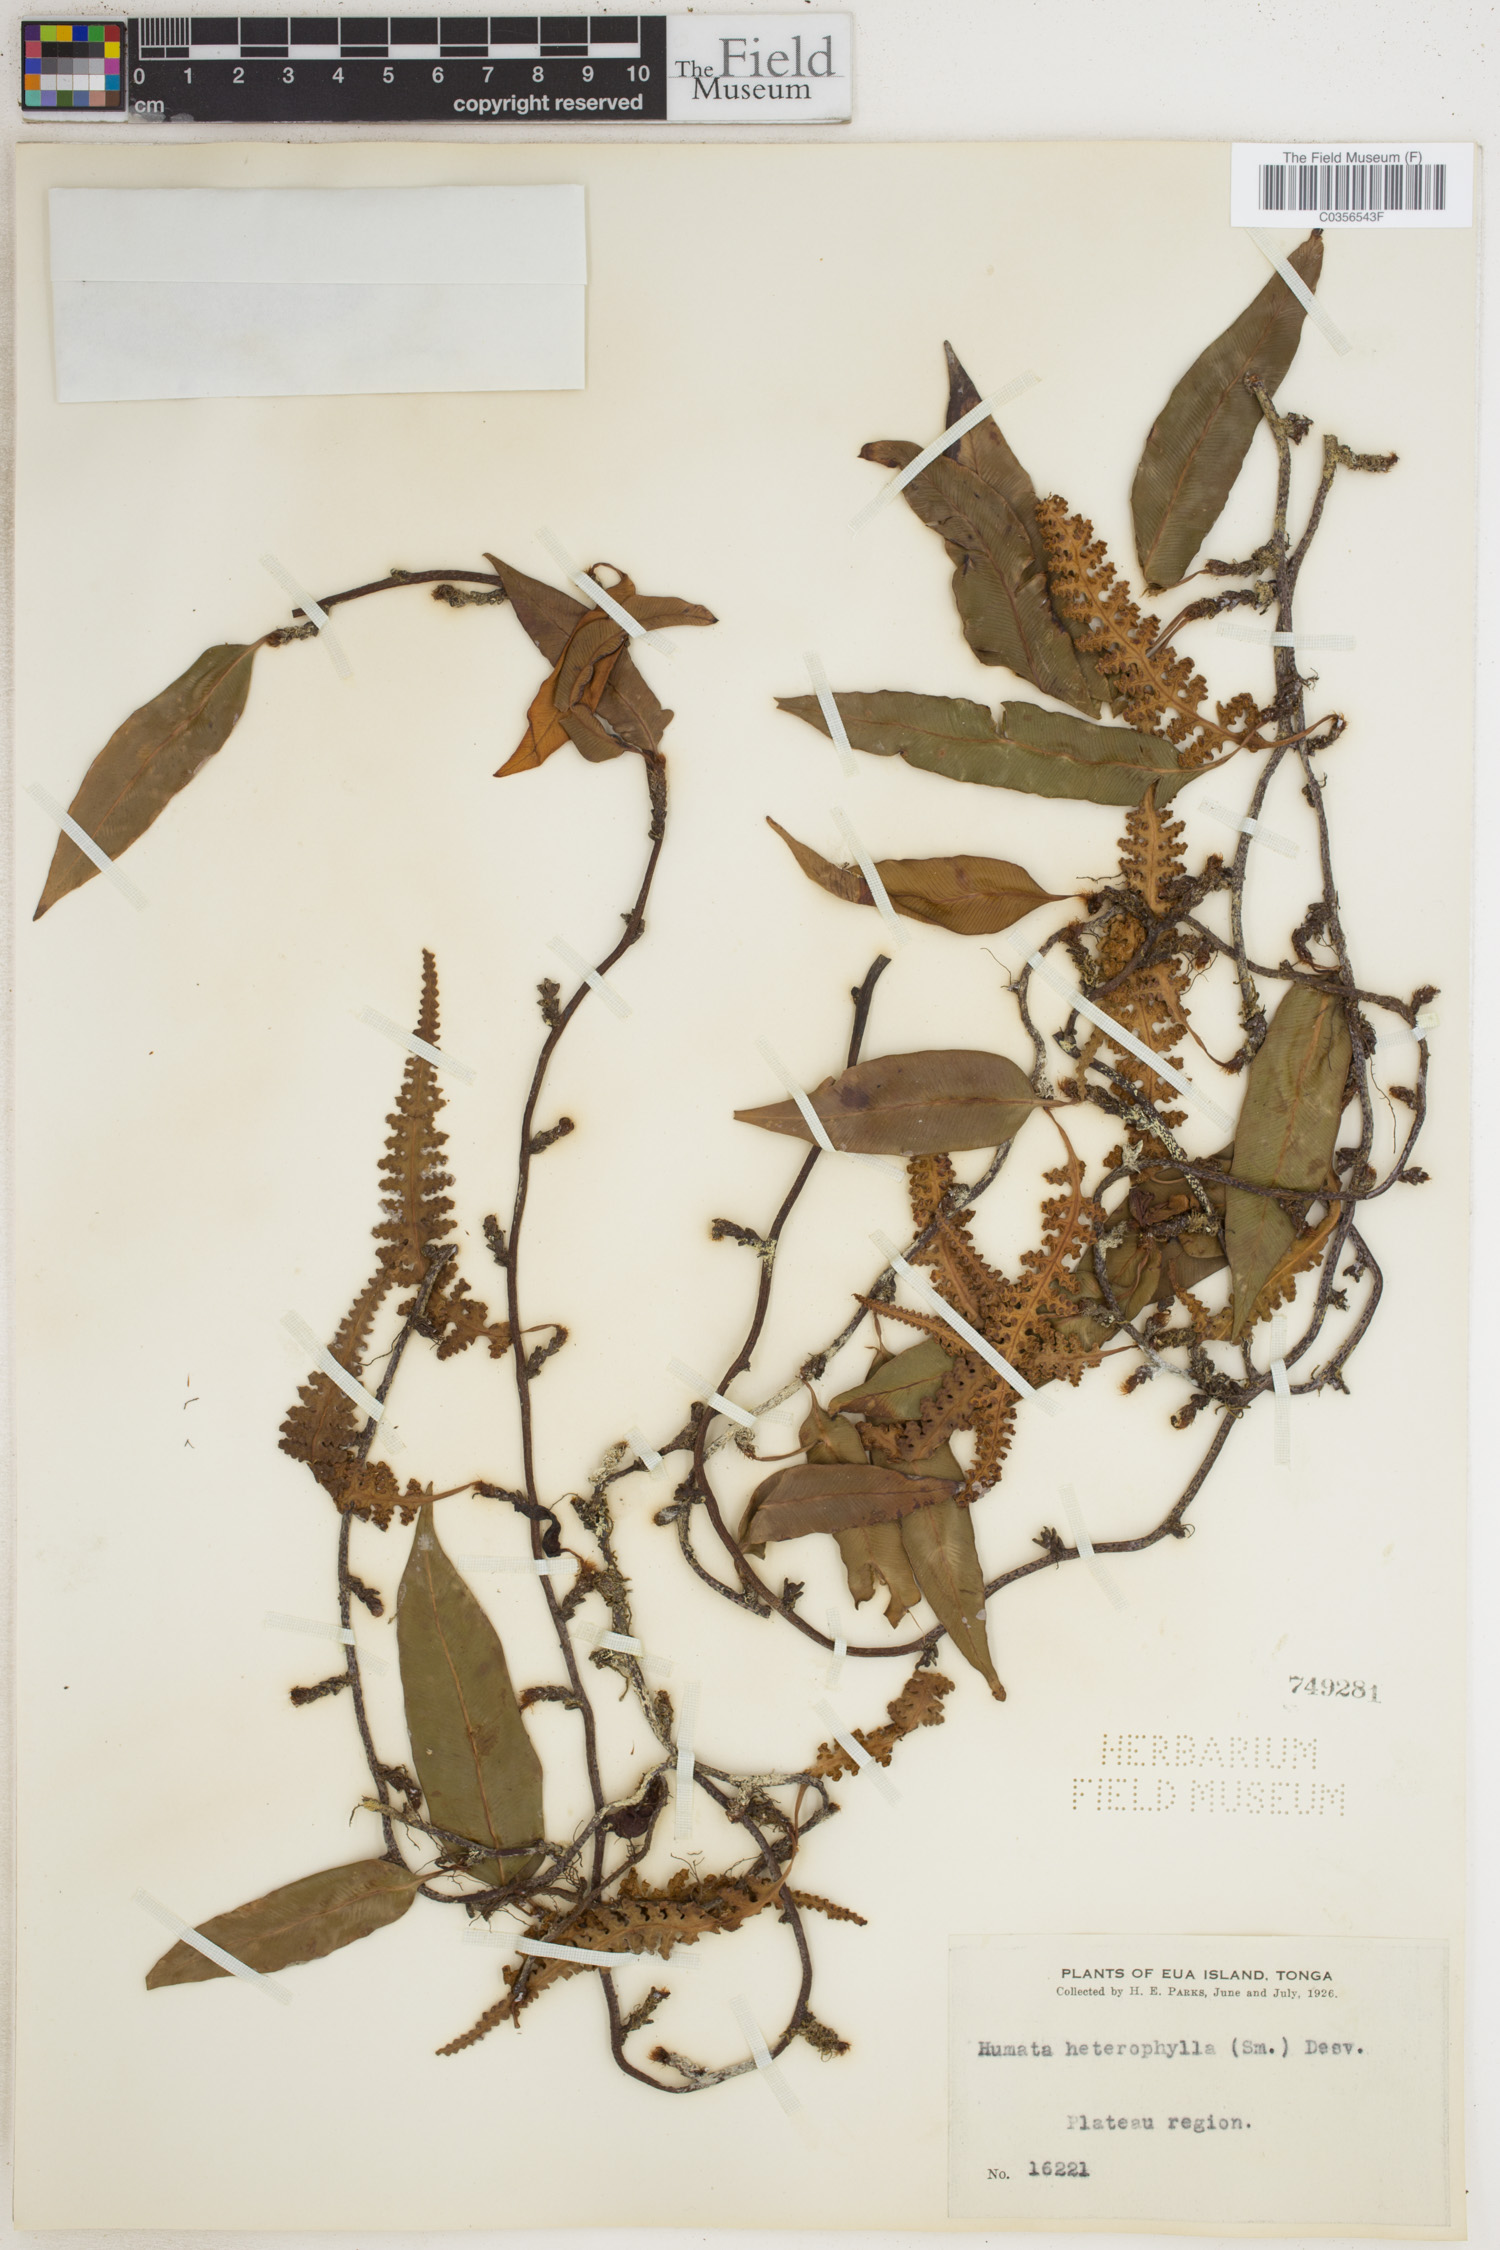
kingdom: Plantae
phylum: Tracheophyta
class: Polypodiopsida
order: Polypodiales
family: Davalliaceae
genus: Davallia
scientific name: Davallia heterophylla
